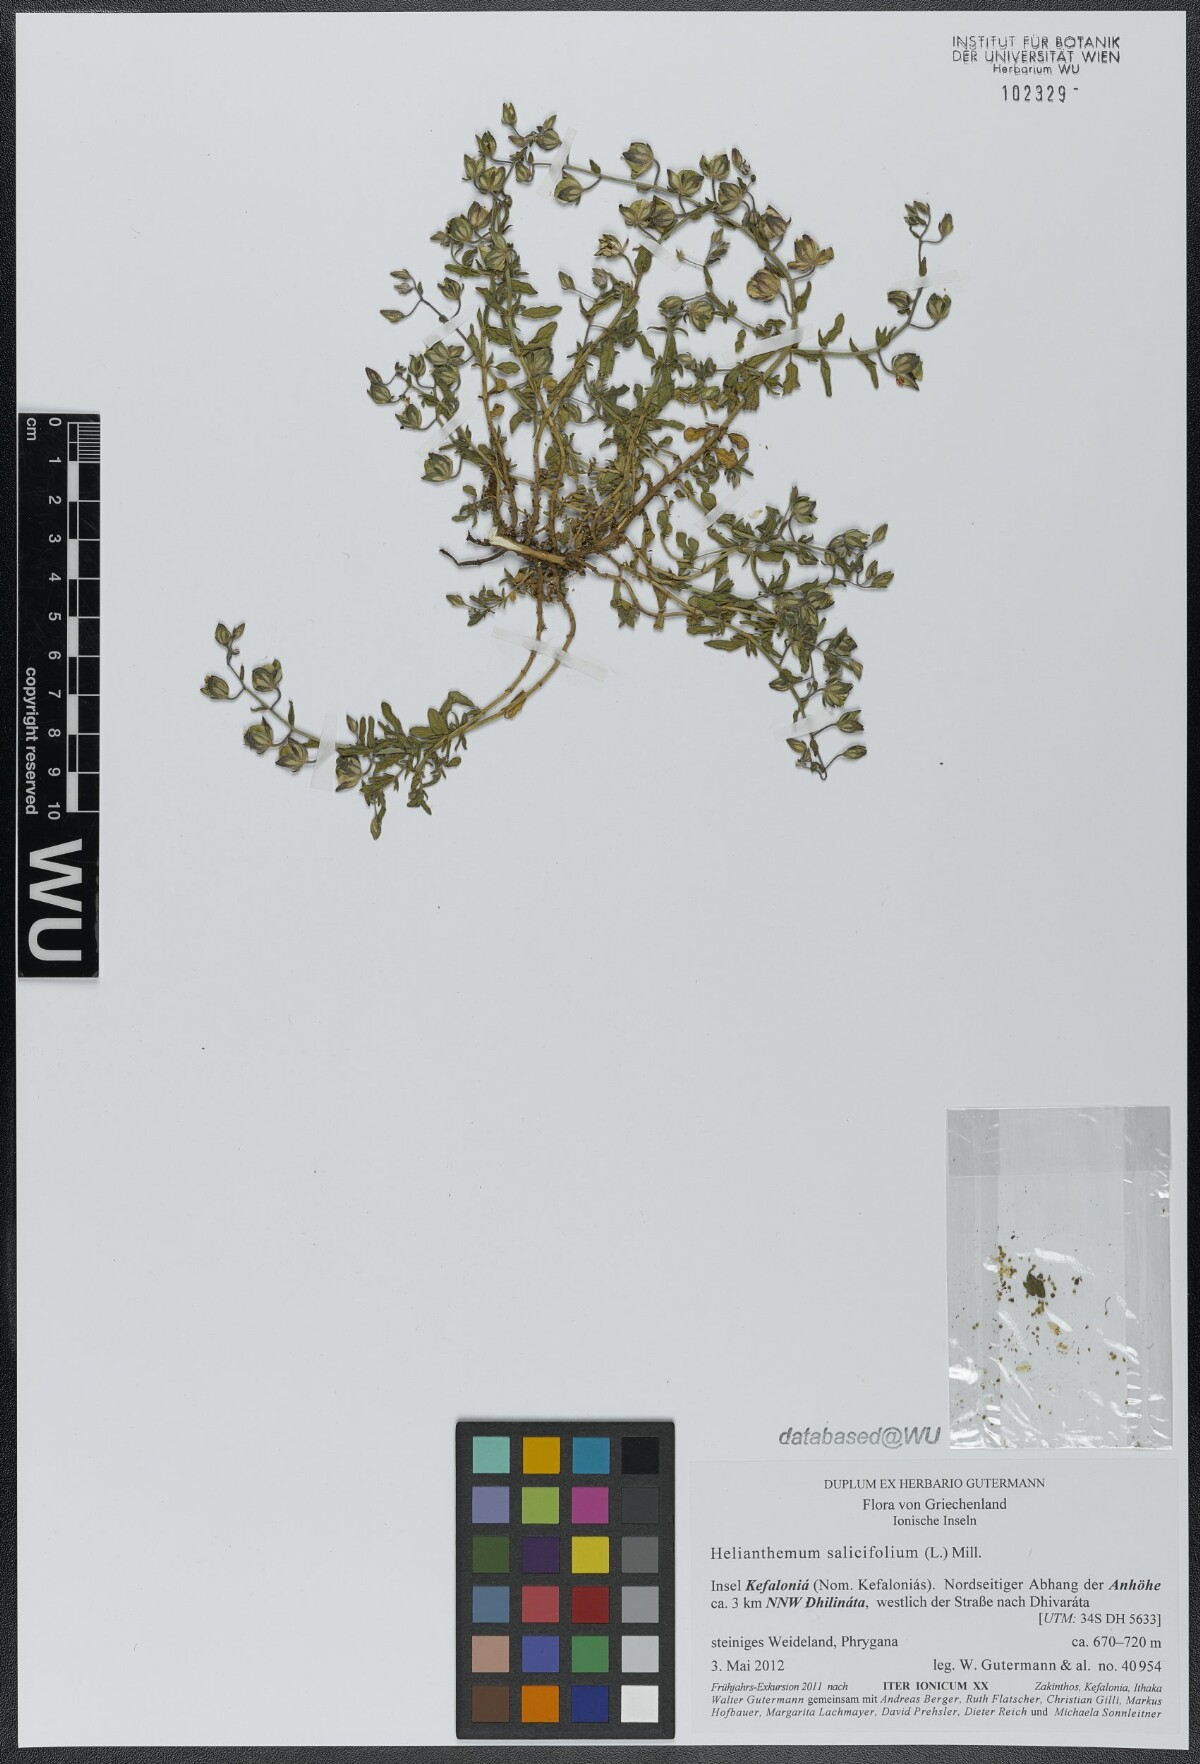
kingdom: Plantae
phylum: Tracheophyta
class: Magnoliopsida
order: Malvales
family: Cistaceae
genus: Helianthemum
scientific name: Helianthemum salicifolium
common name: Willowleaf frostweed
